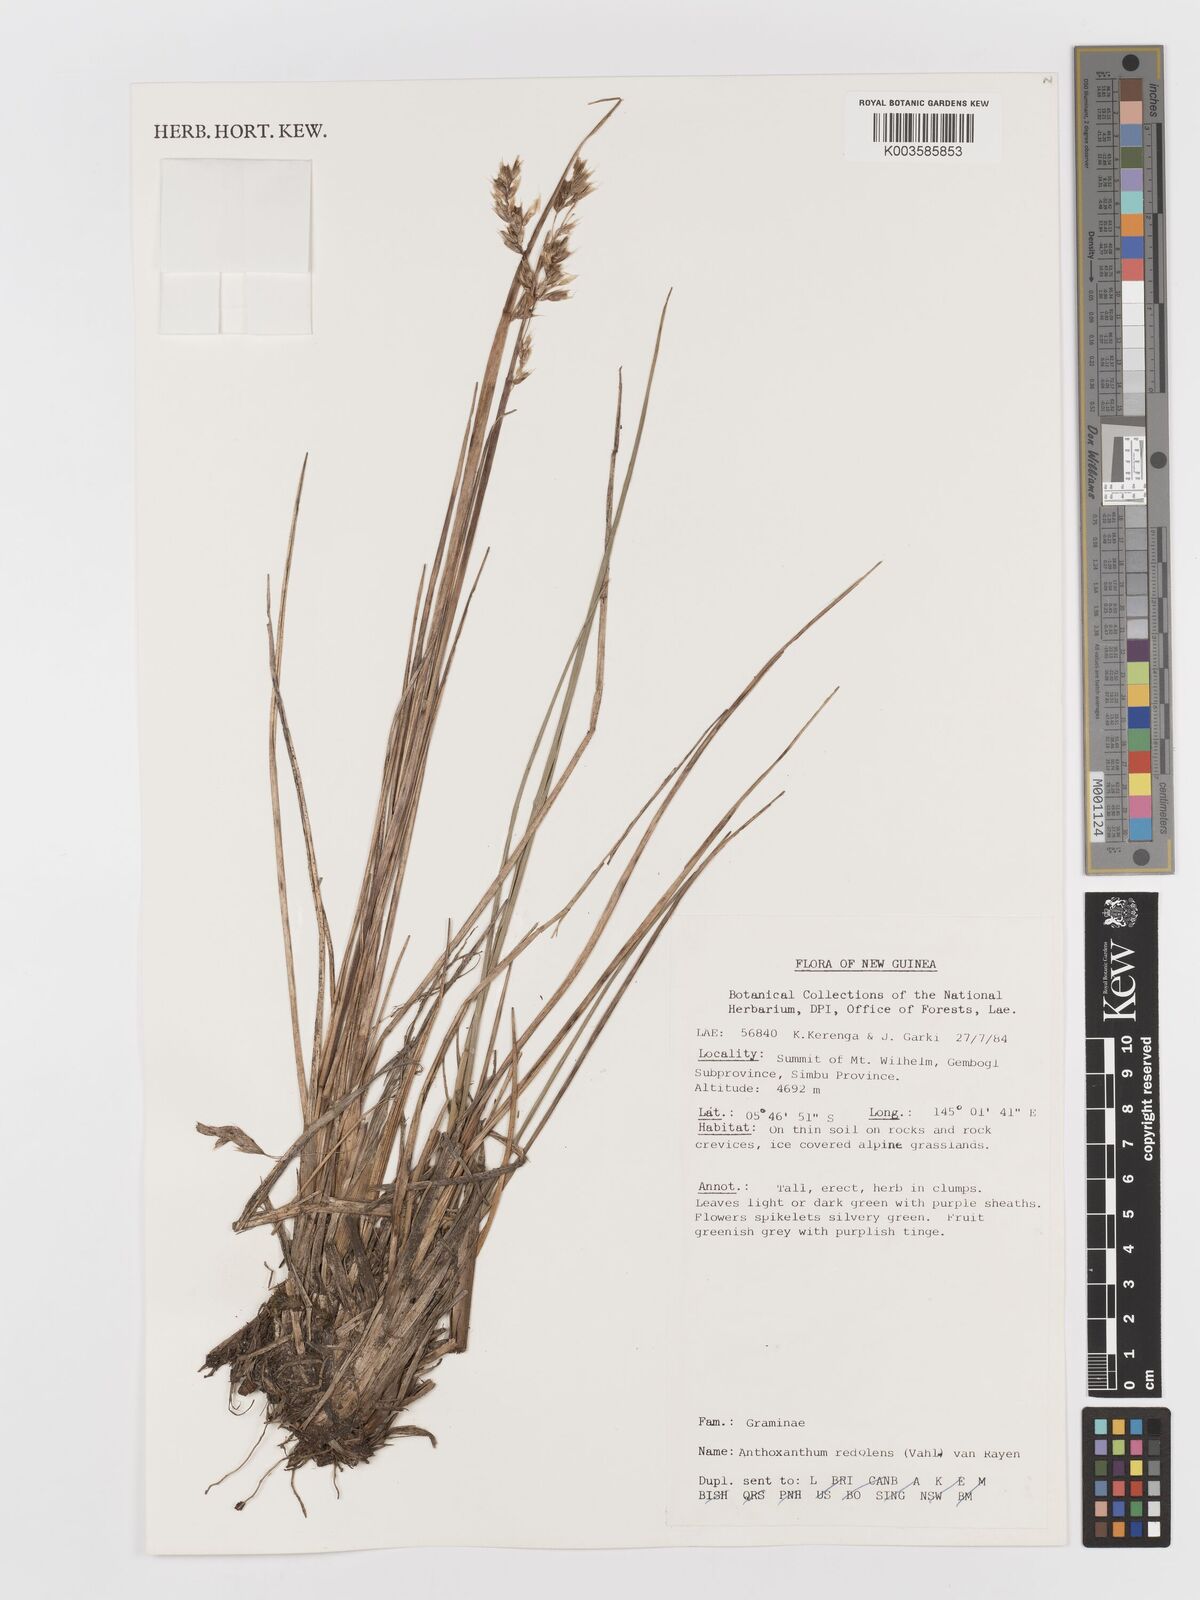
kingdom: Plantae
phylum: Tracheophyta
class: Liliopsida
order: Poales
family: Poaceae
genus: Anthoxanthum
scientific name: Anthoxanthum redolens
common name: Sweet holy grass
